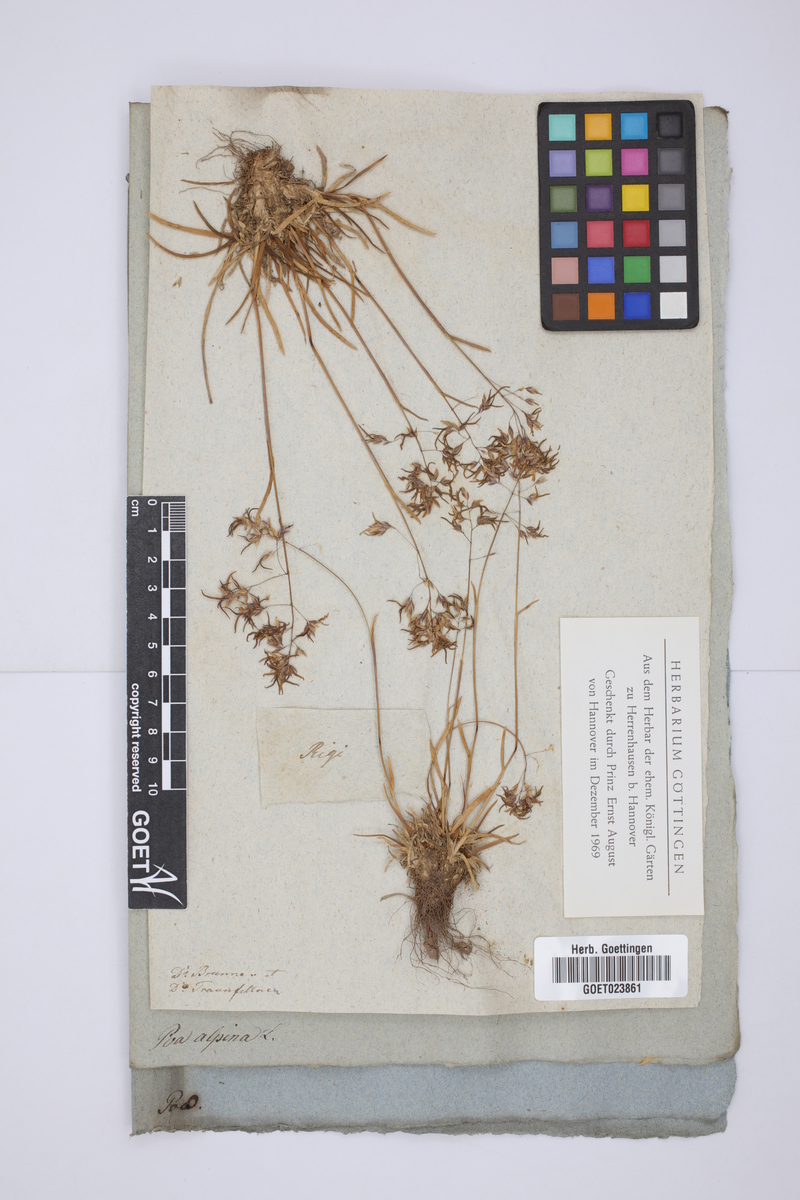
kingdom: Plantae
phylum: Tracheophyta
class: Liliopsida
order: Poales
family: Poaceae
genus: Poa
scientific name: Poa alpina
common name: Alpine bluegrass
